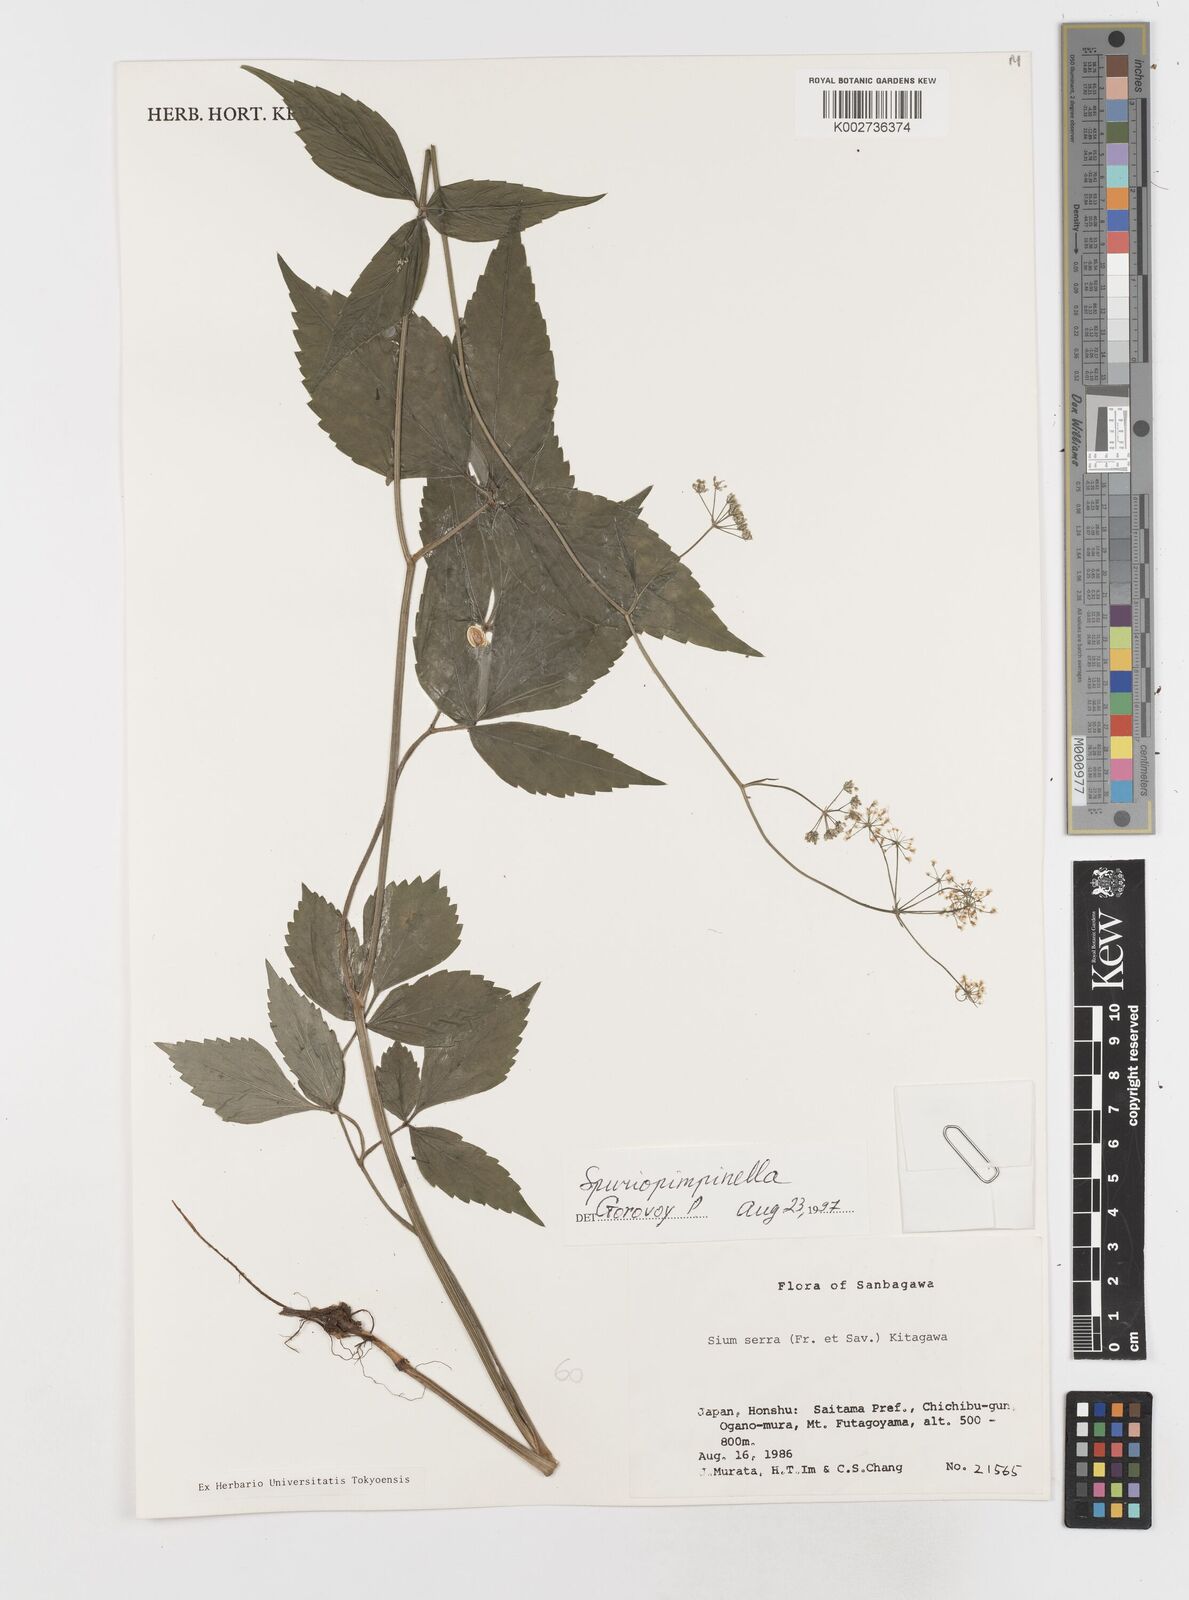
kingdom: Plantae
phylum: Tracheophyta
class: Magnoliopsida
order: Apiales
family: Apiaceae
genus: Sium
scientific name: Sium serra
